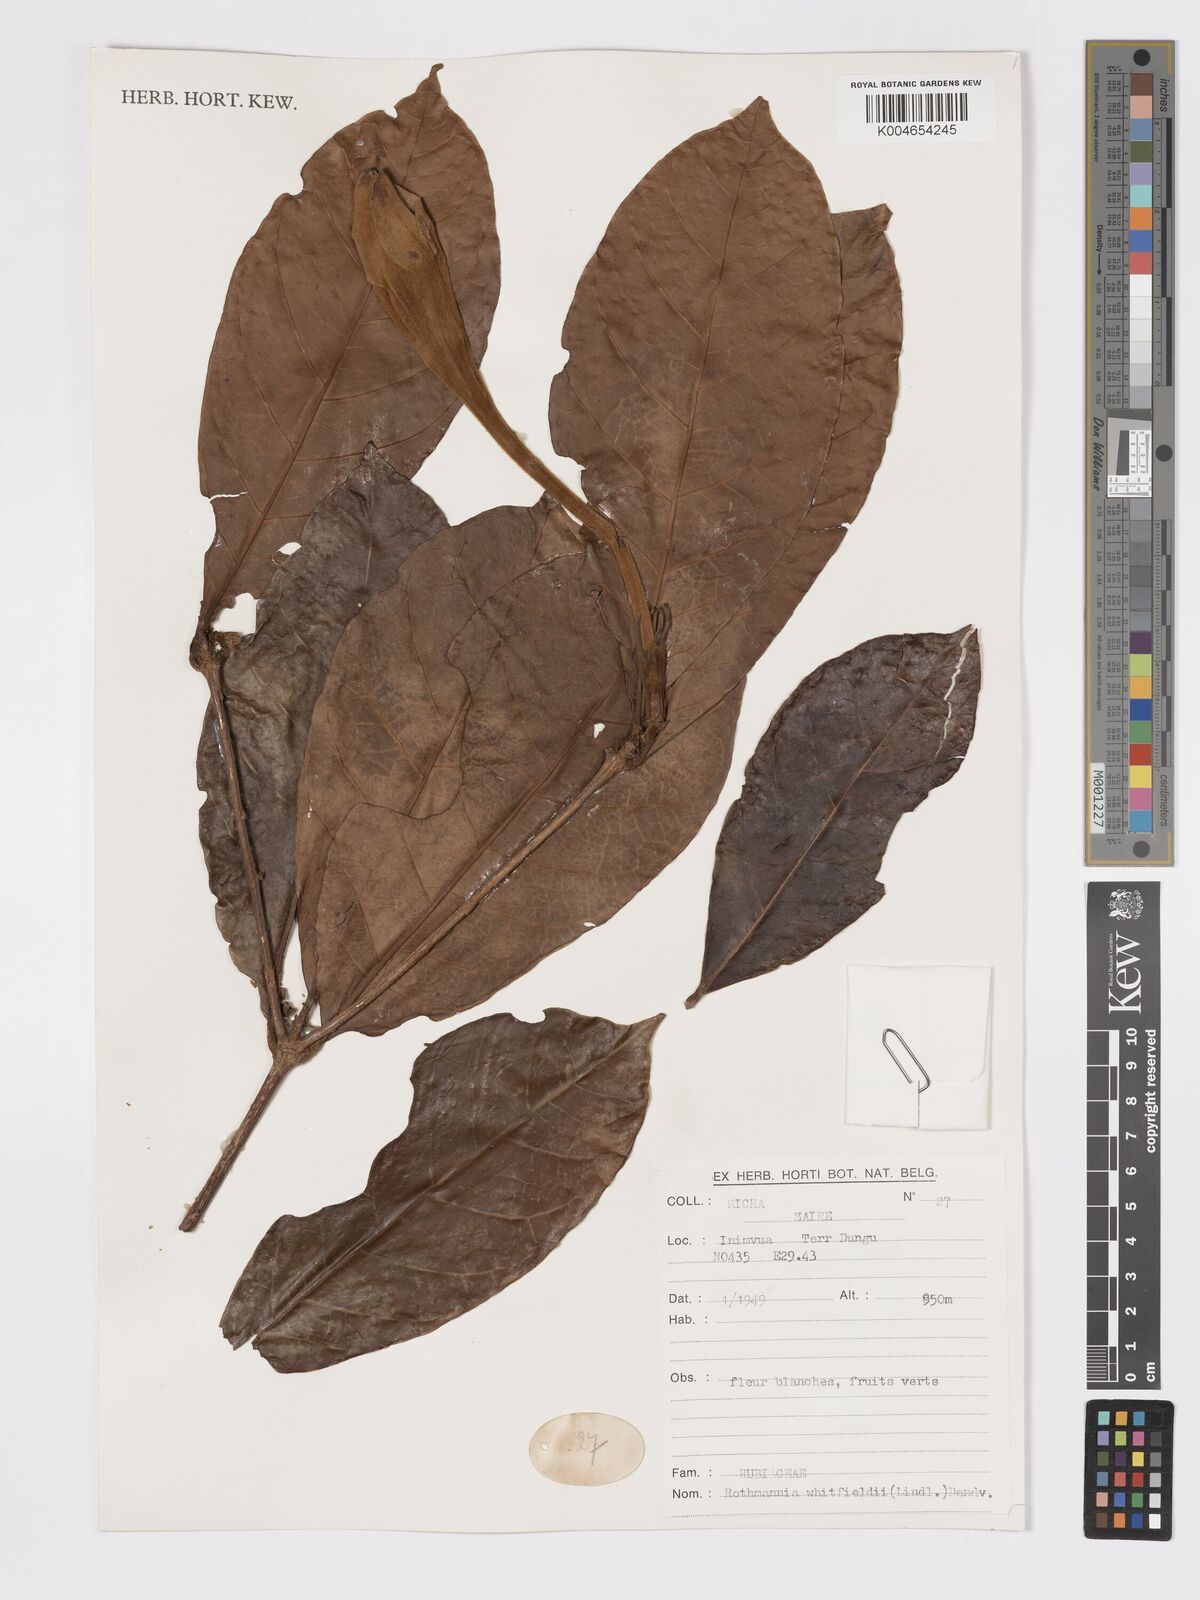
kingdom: Plantae
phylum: Tracheophyta
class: Magnoliopsida
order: Gentianales
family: Rubiaceae
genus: Rothmannia
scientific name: Rothmannia whitfieldii
